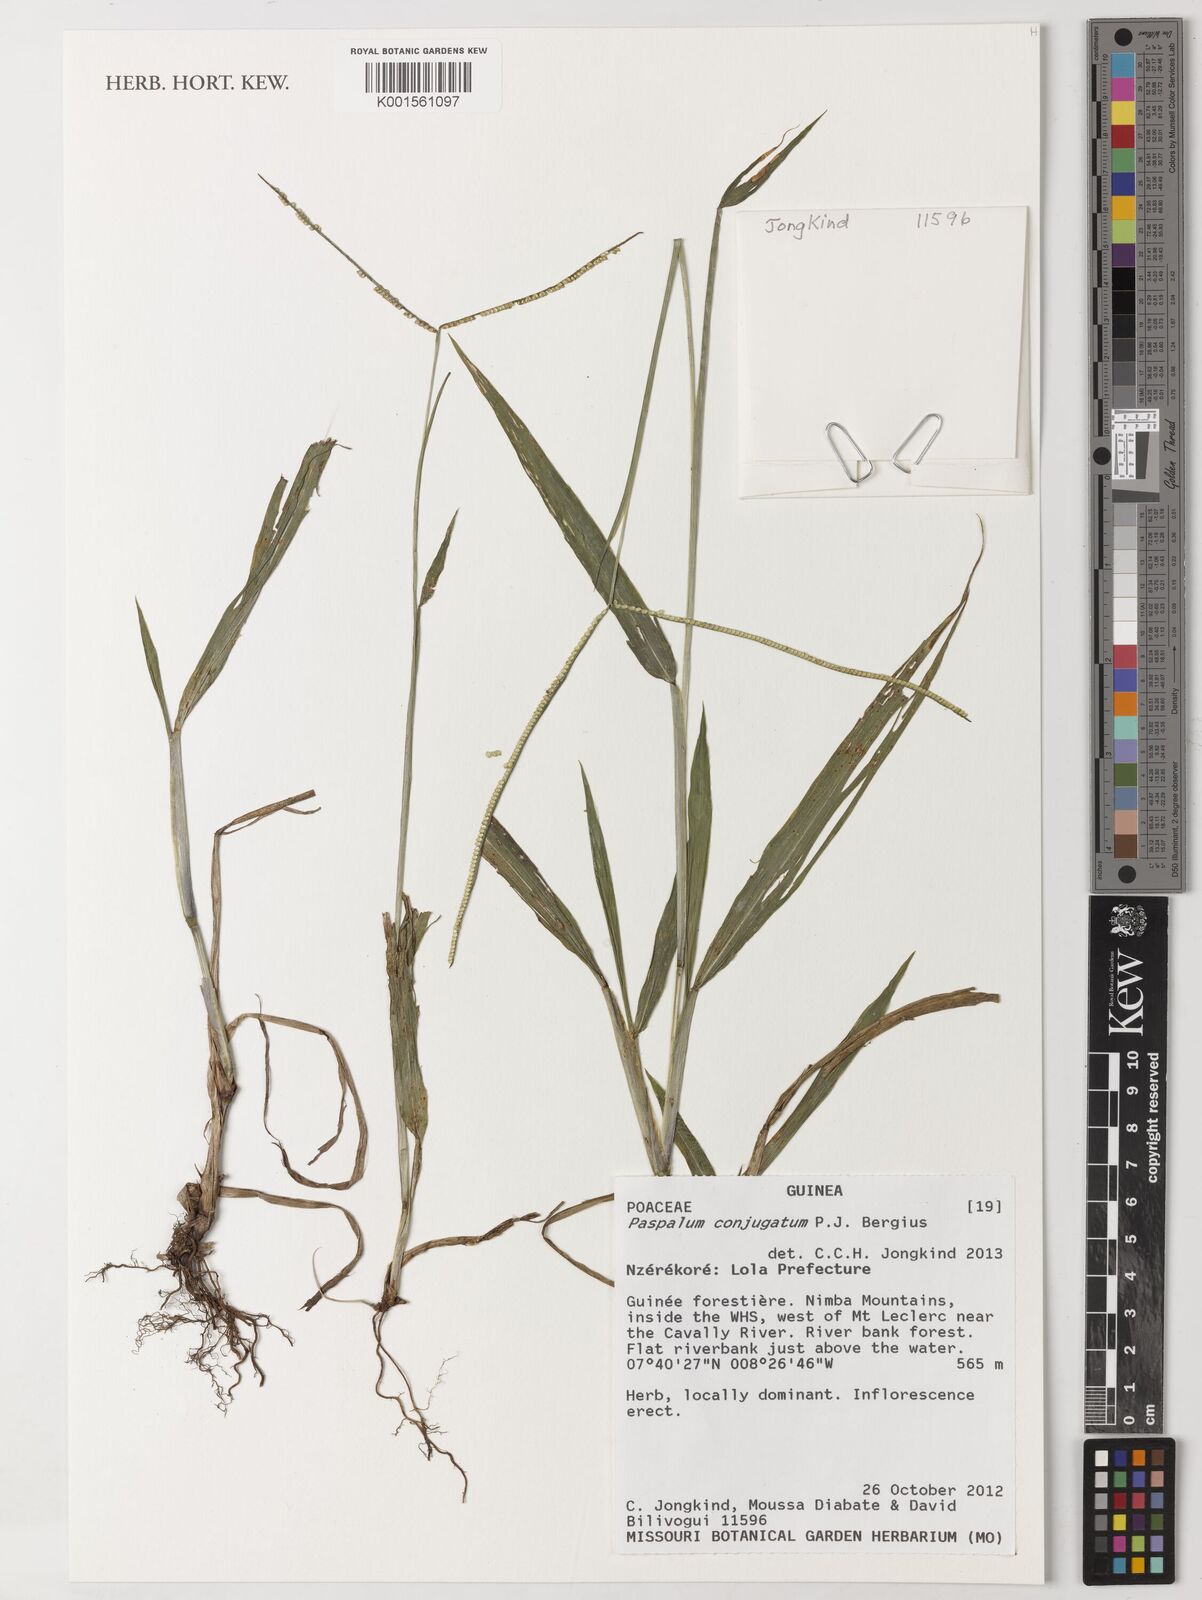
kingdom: Plantae
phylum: Tracheophyta
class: Liliopsida
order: Poales
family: Poaceae
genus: Paspalum
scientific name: Paspalum conjugatum
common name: Hilograss
